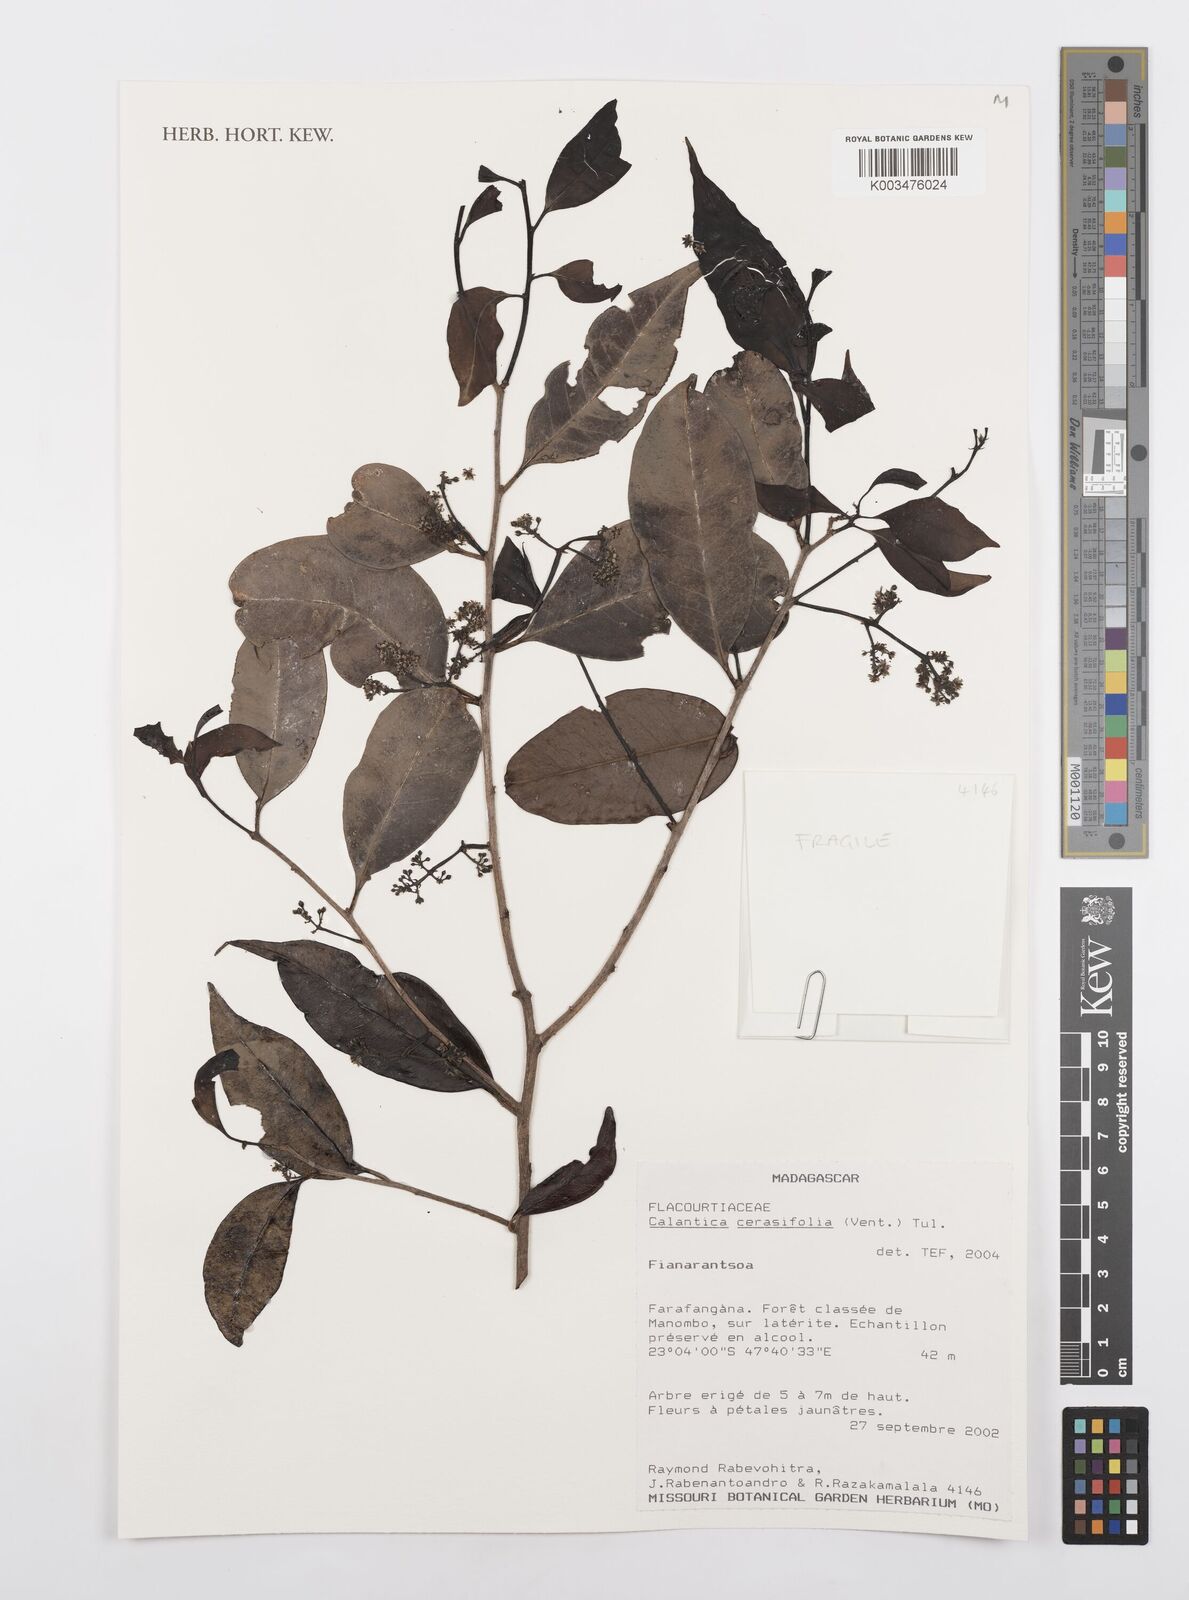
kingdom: Plantae
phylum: Tracheophyta
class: Magnoliopsida
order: Malpighiales
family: Salicaceae
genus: Calantica
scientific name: Calantica cerasifolia
